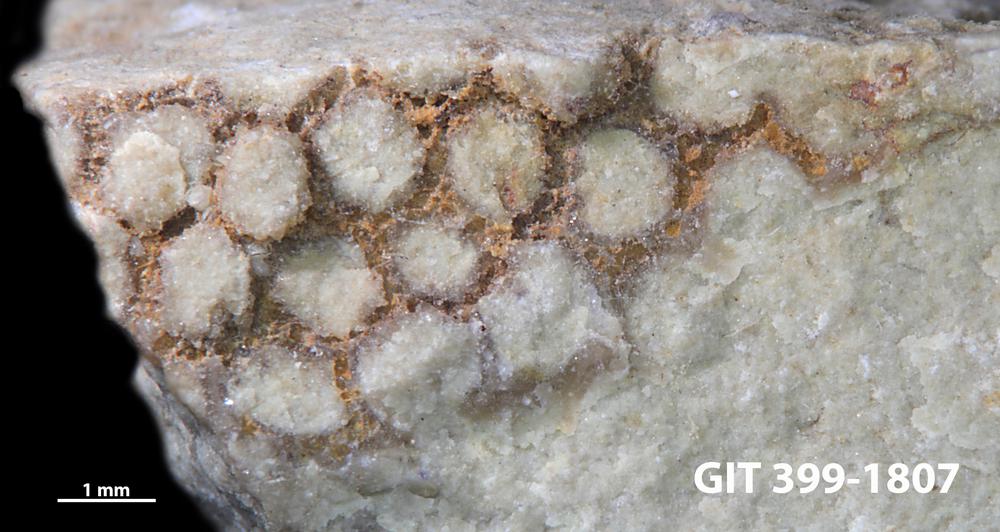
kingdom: Plantae
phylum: Chlorophyta
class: Ulvophyceae
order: Cyclocrinales
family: Cyclocrinaceae
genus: Mastopora
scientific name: Mastopora concava
